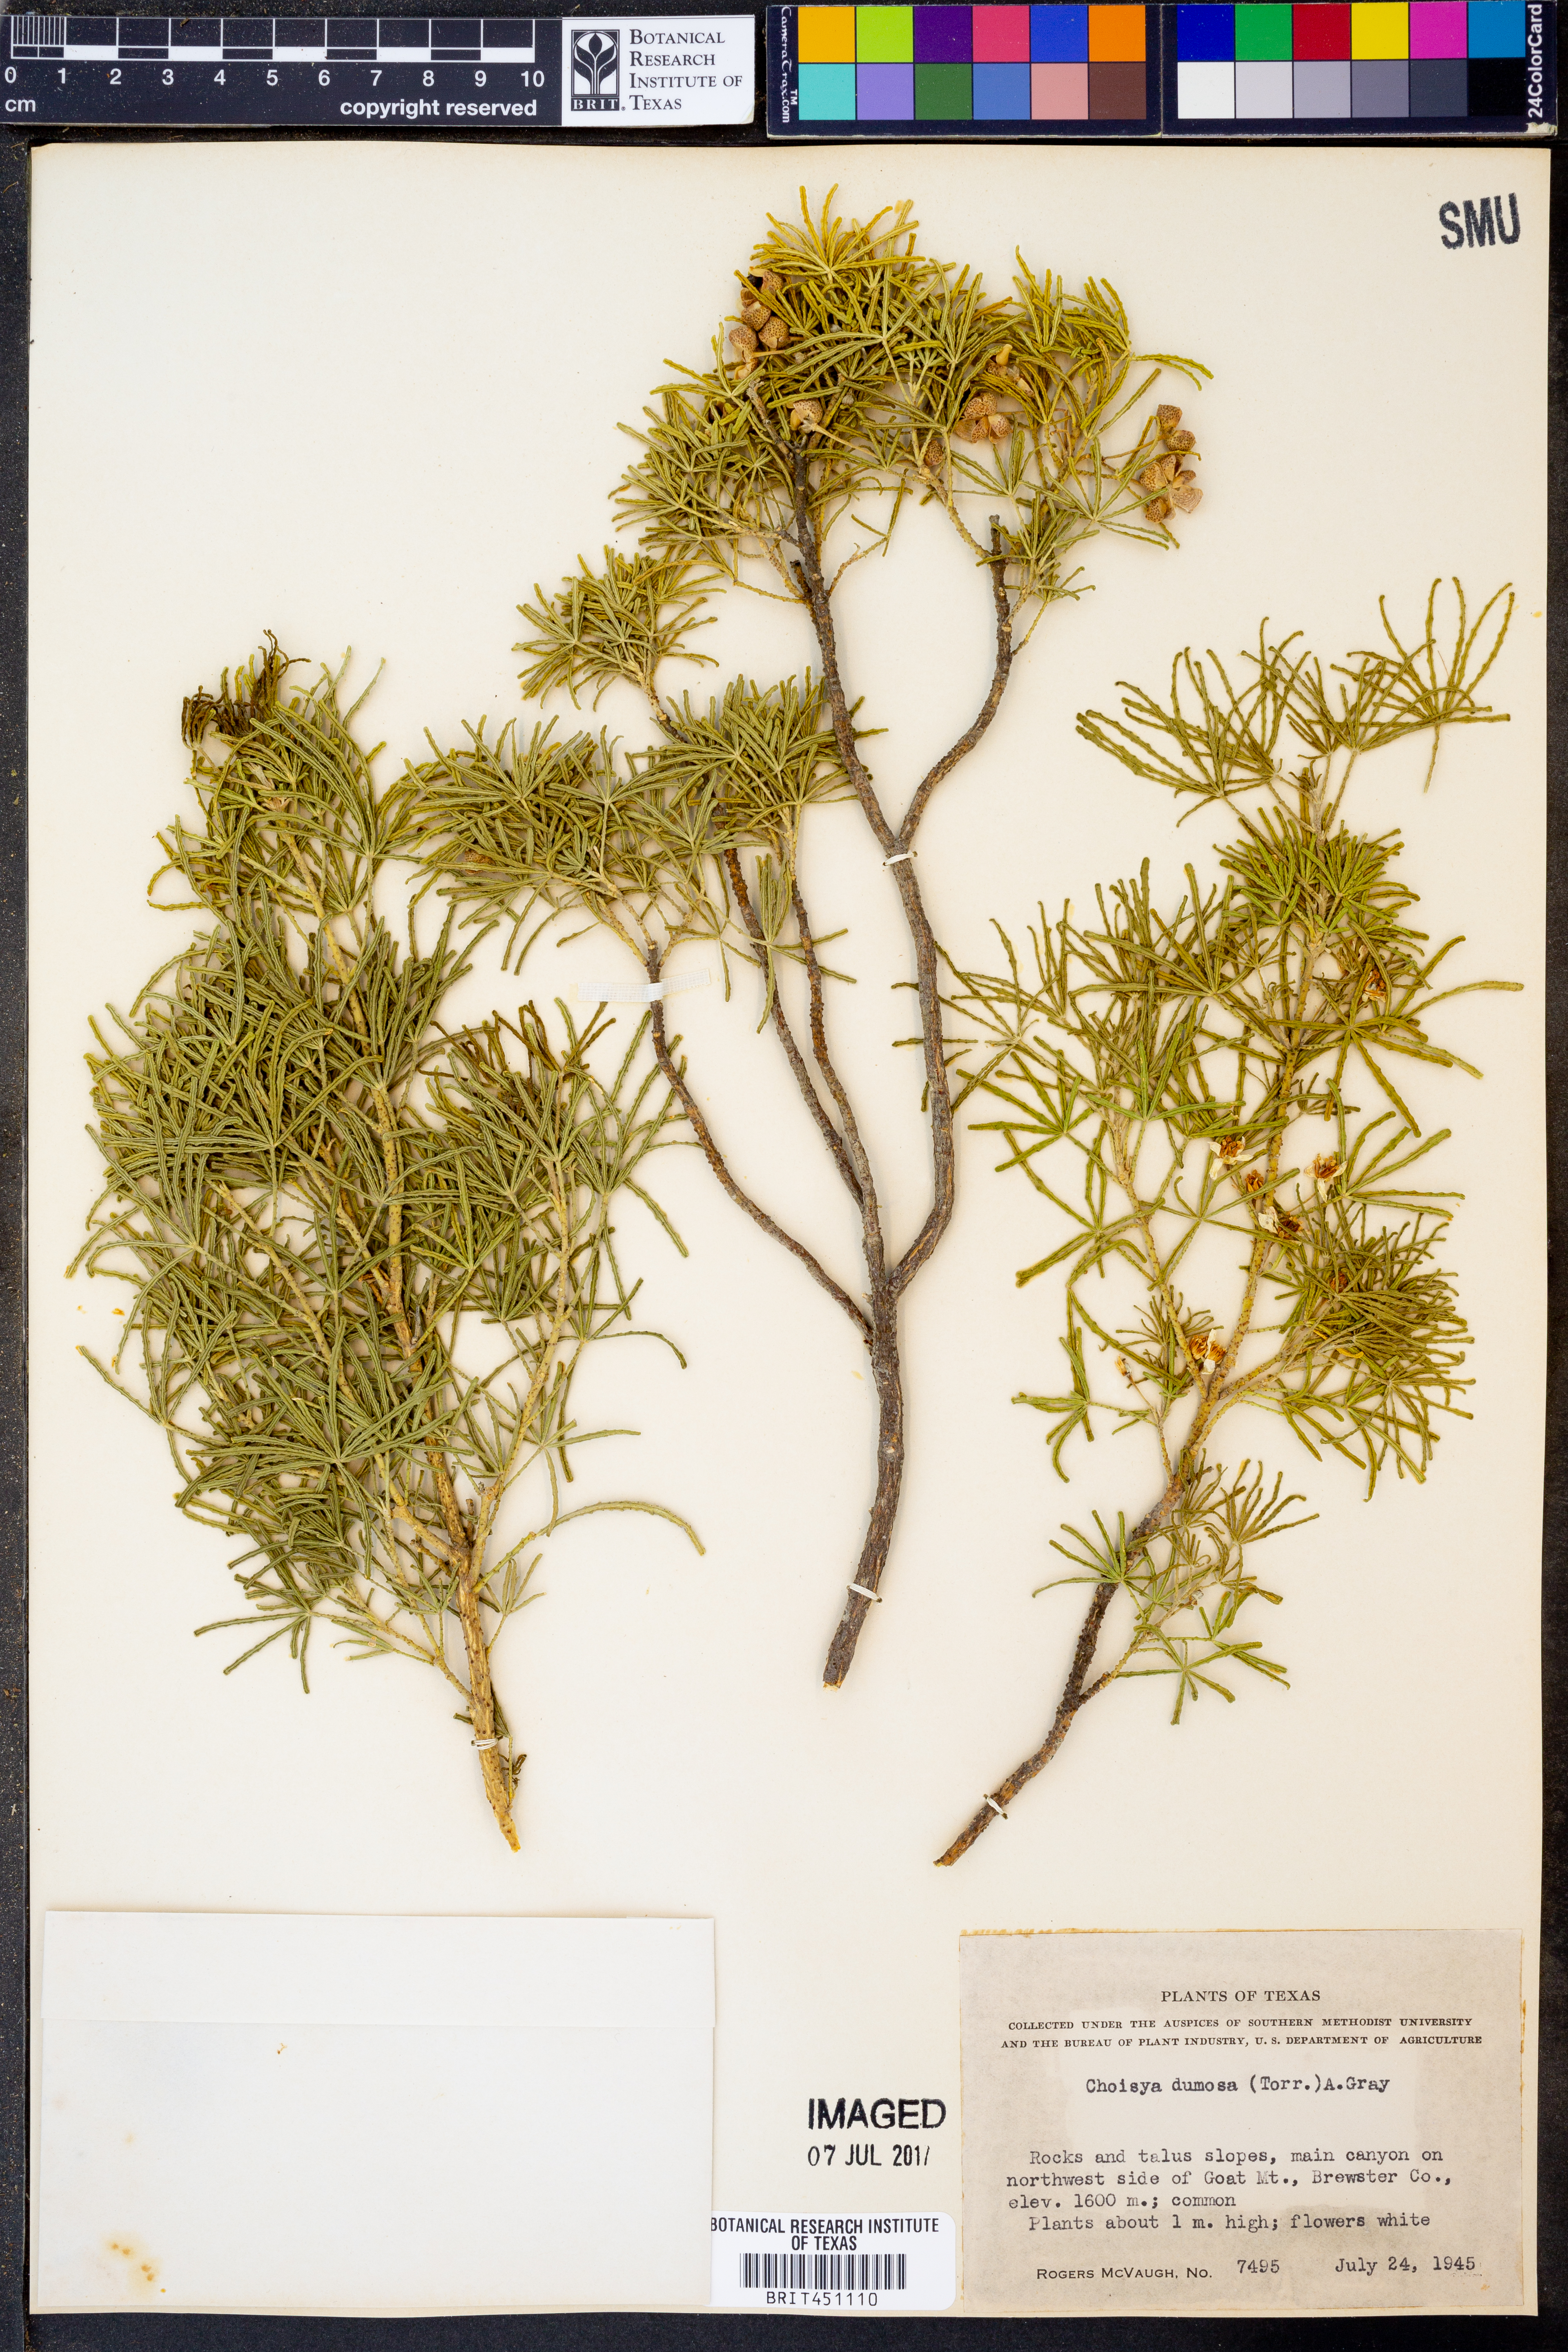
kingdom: Plantae
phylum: Tracheophyta
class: Magnoliopsida
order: Sapindales
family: Rutaceae
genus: Choisya
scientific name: Choisya dumosa
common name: Mexican-orange
